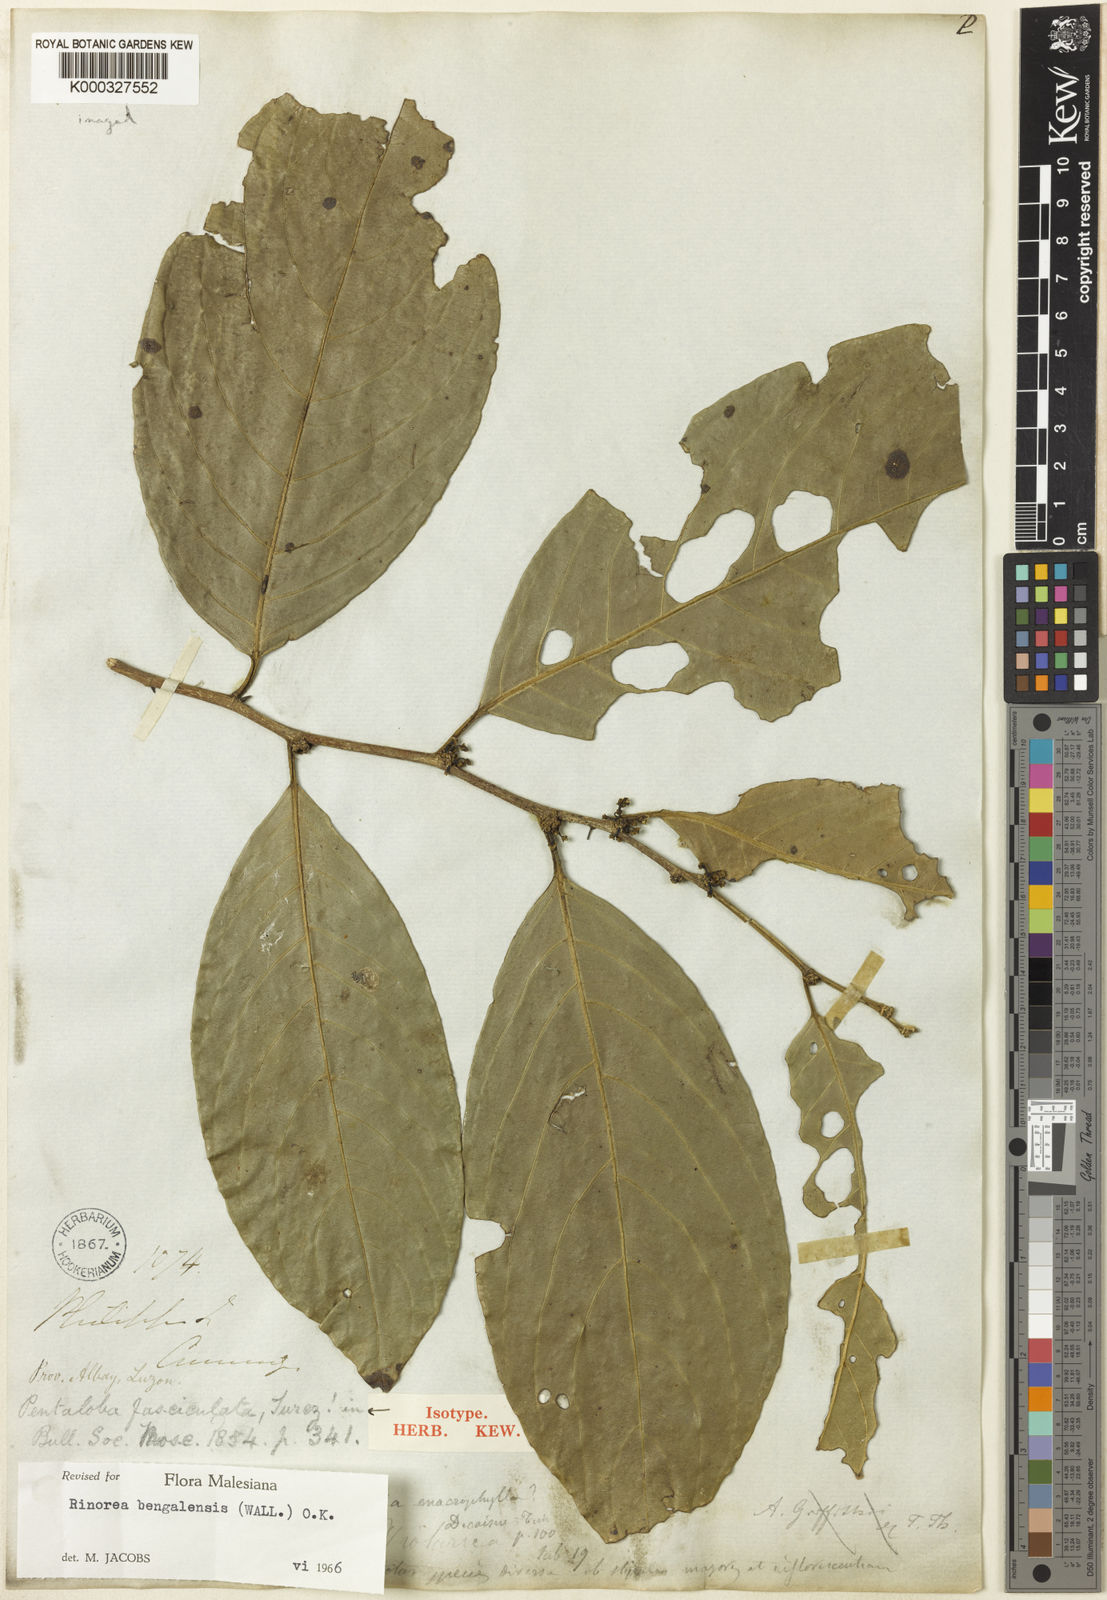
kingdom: Plantae
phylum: Tracheophyta
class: Magnoliopsida
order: Malpighiales
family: Violaceae
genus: Rinorea
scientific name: Rinorea bengalensis
